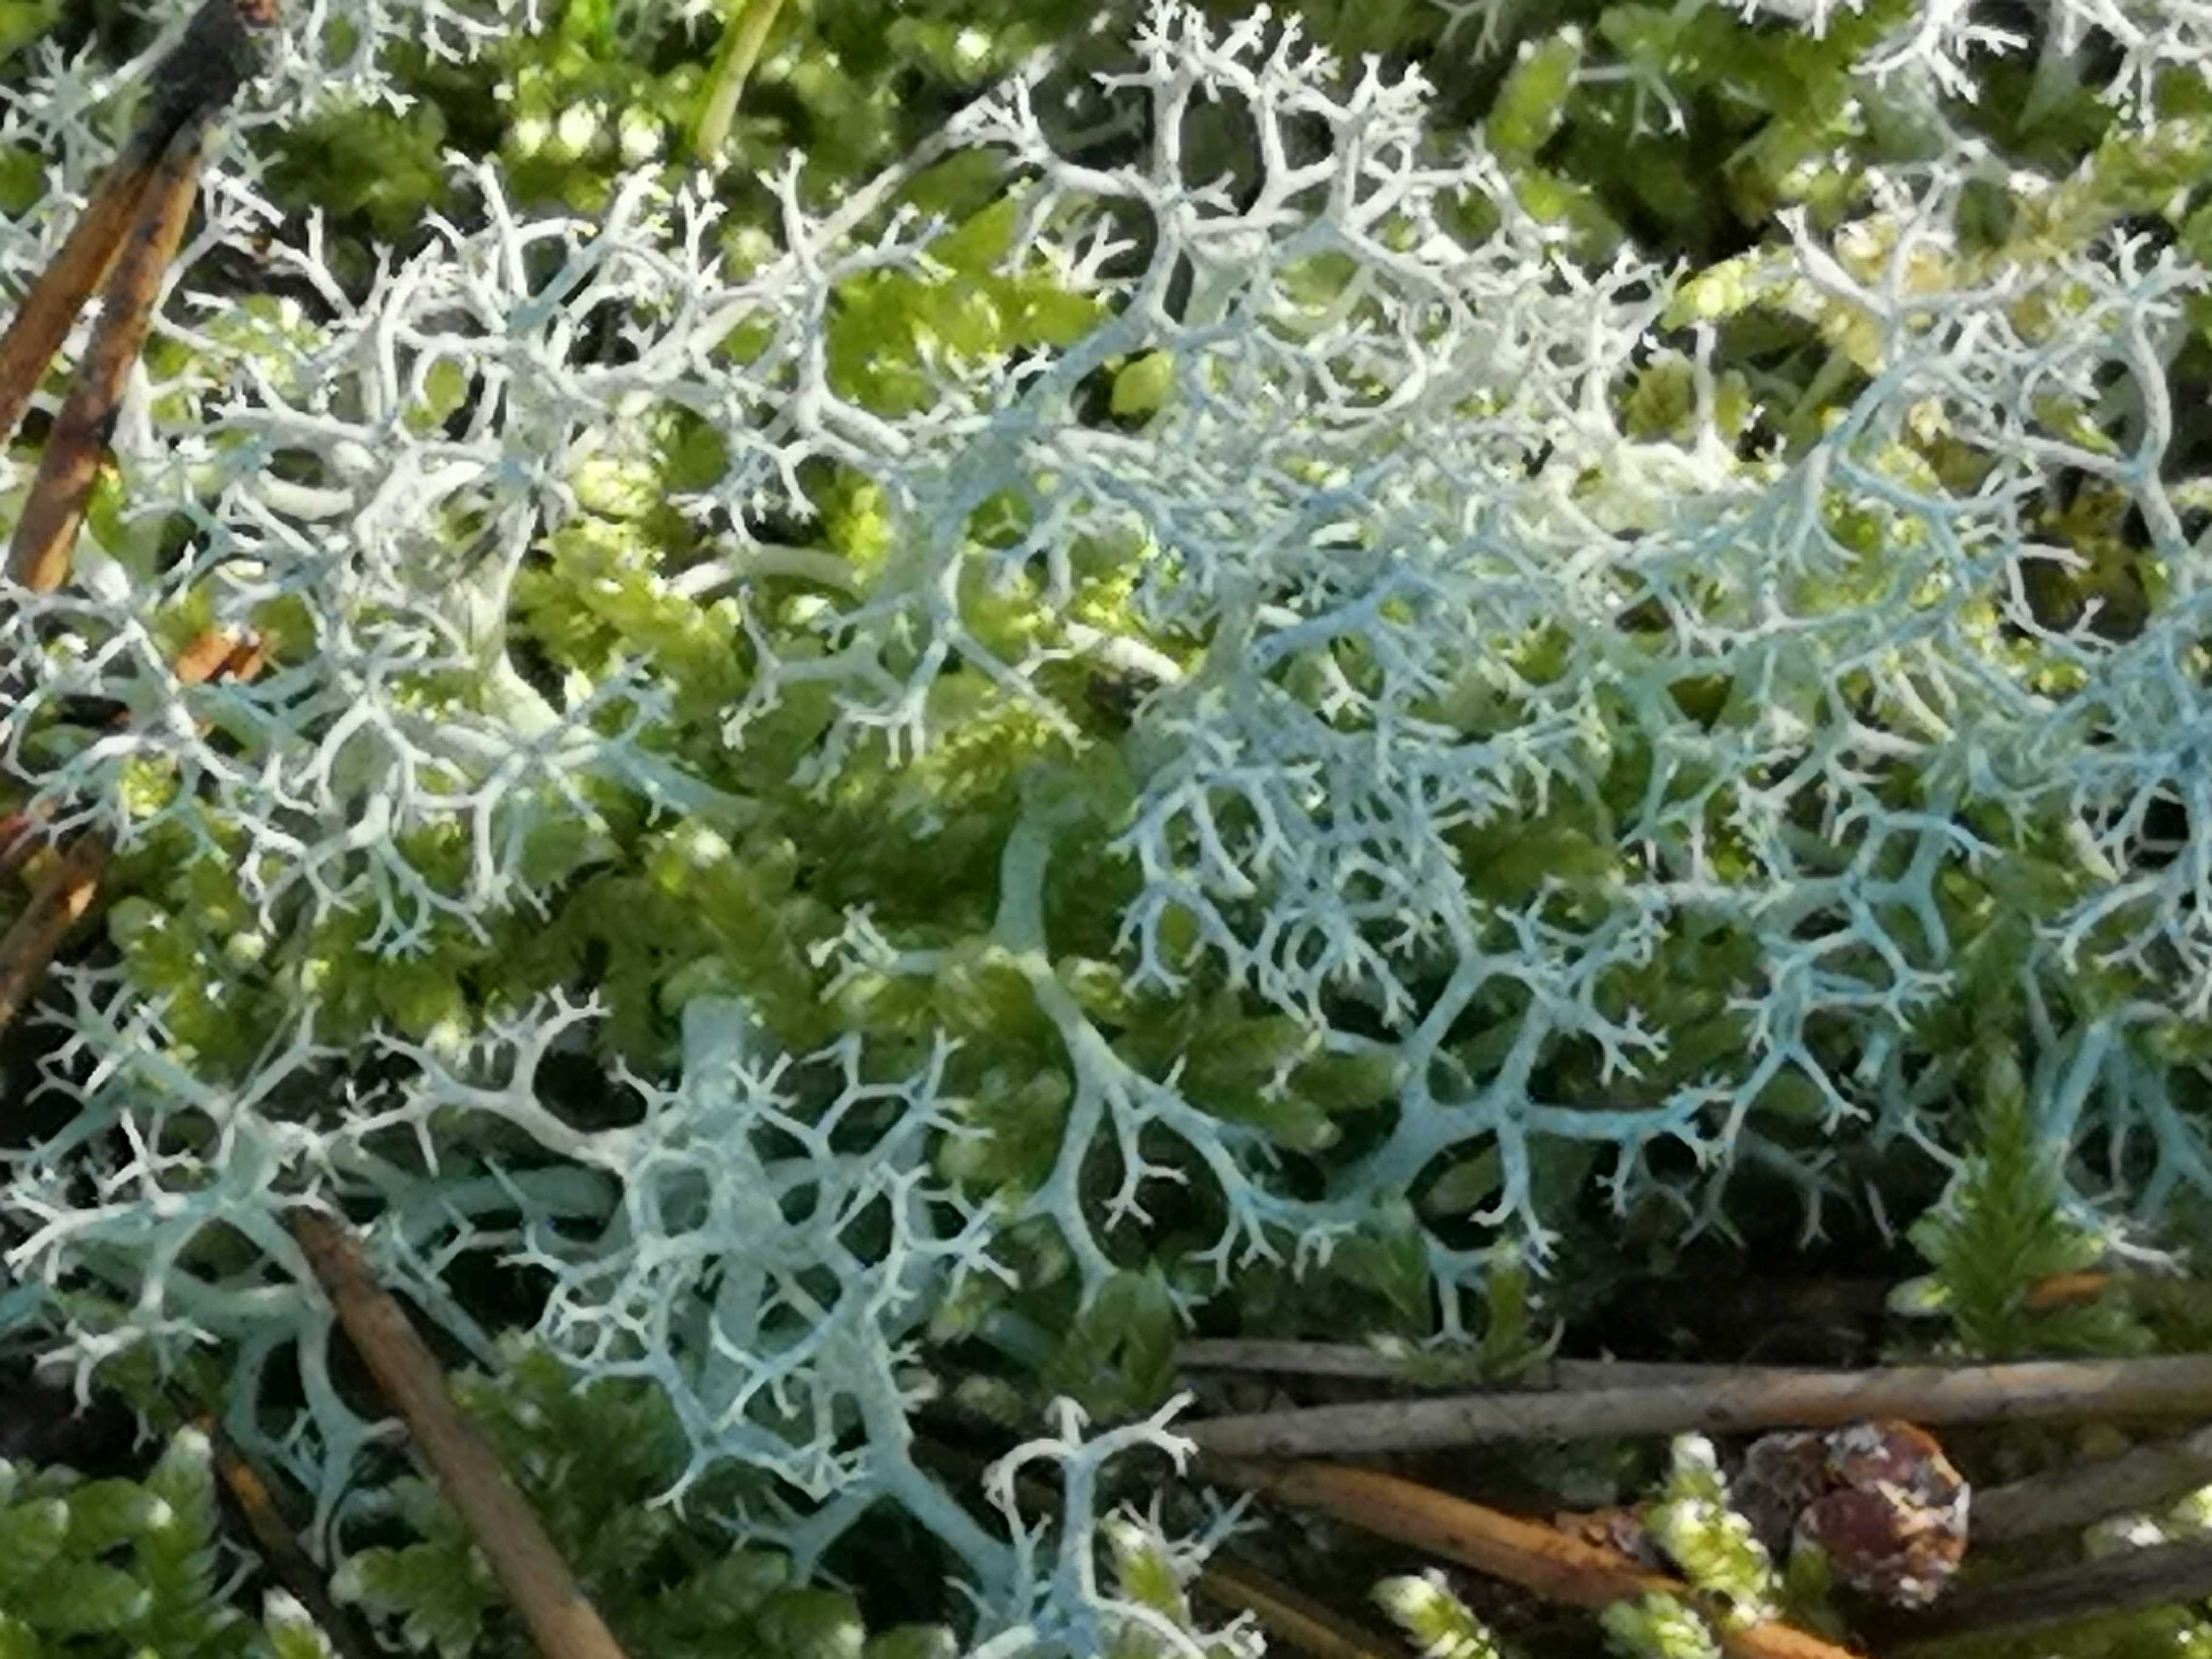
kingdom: Fungi
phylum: Ascomycota
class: Lecanoromycetes
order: Lecanorales
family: Cladoniaceae
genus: Cladonia
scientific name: Cladonia portentosa
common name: hede-rensdyrlav
